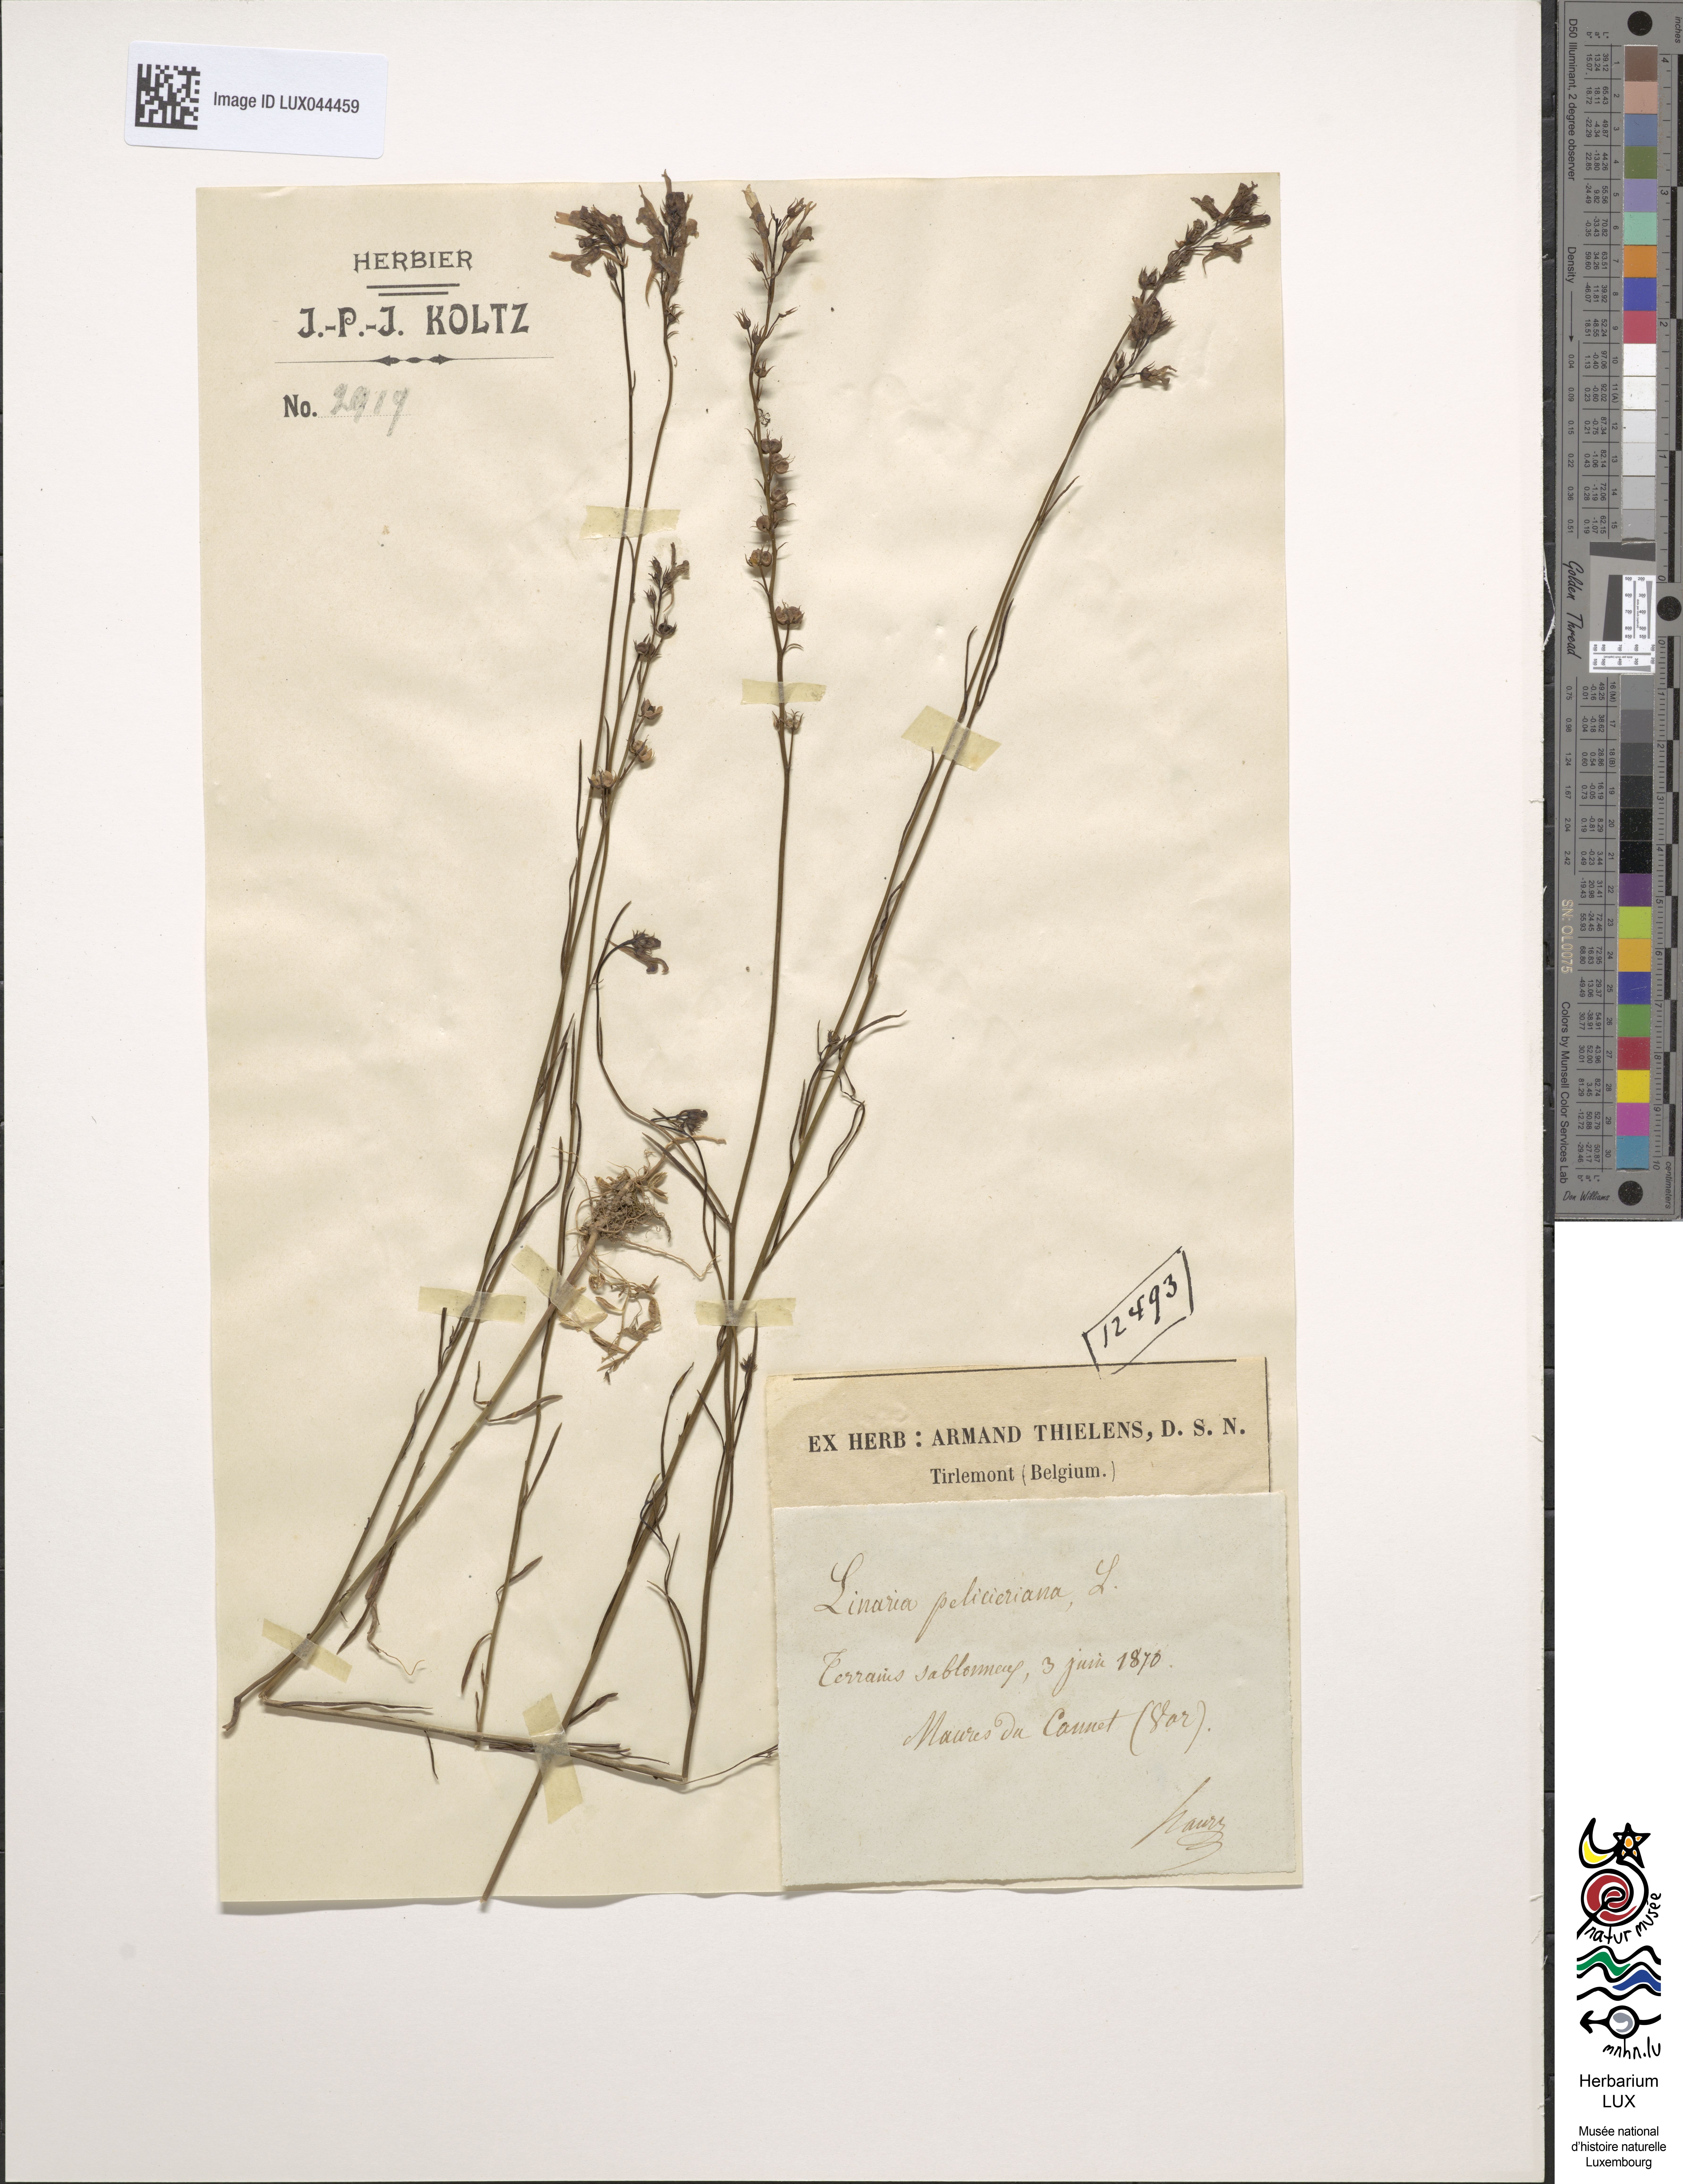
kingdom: Plantae
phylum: Tracheophyta
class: Magnoliopsida
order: Lamiales
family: Plantaginaceae
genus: Linaria
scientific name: Linaria pelisseriana
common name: Jersey toadflax
